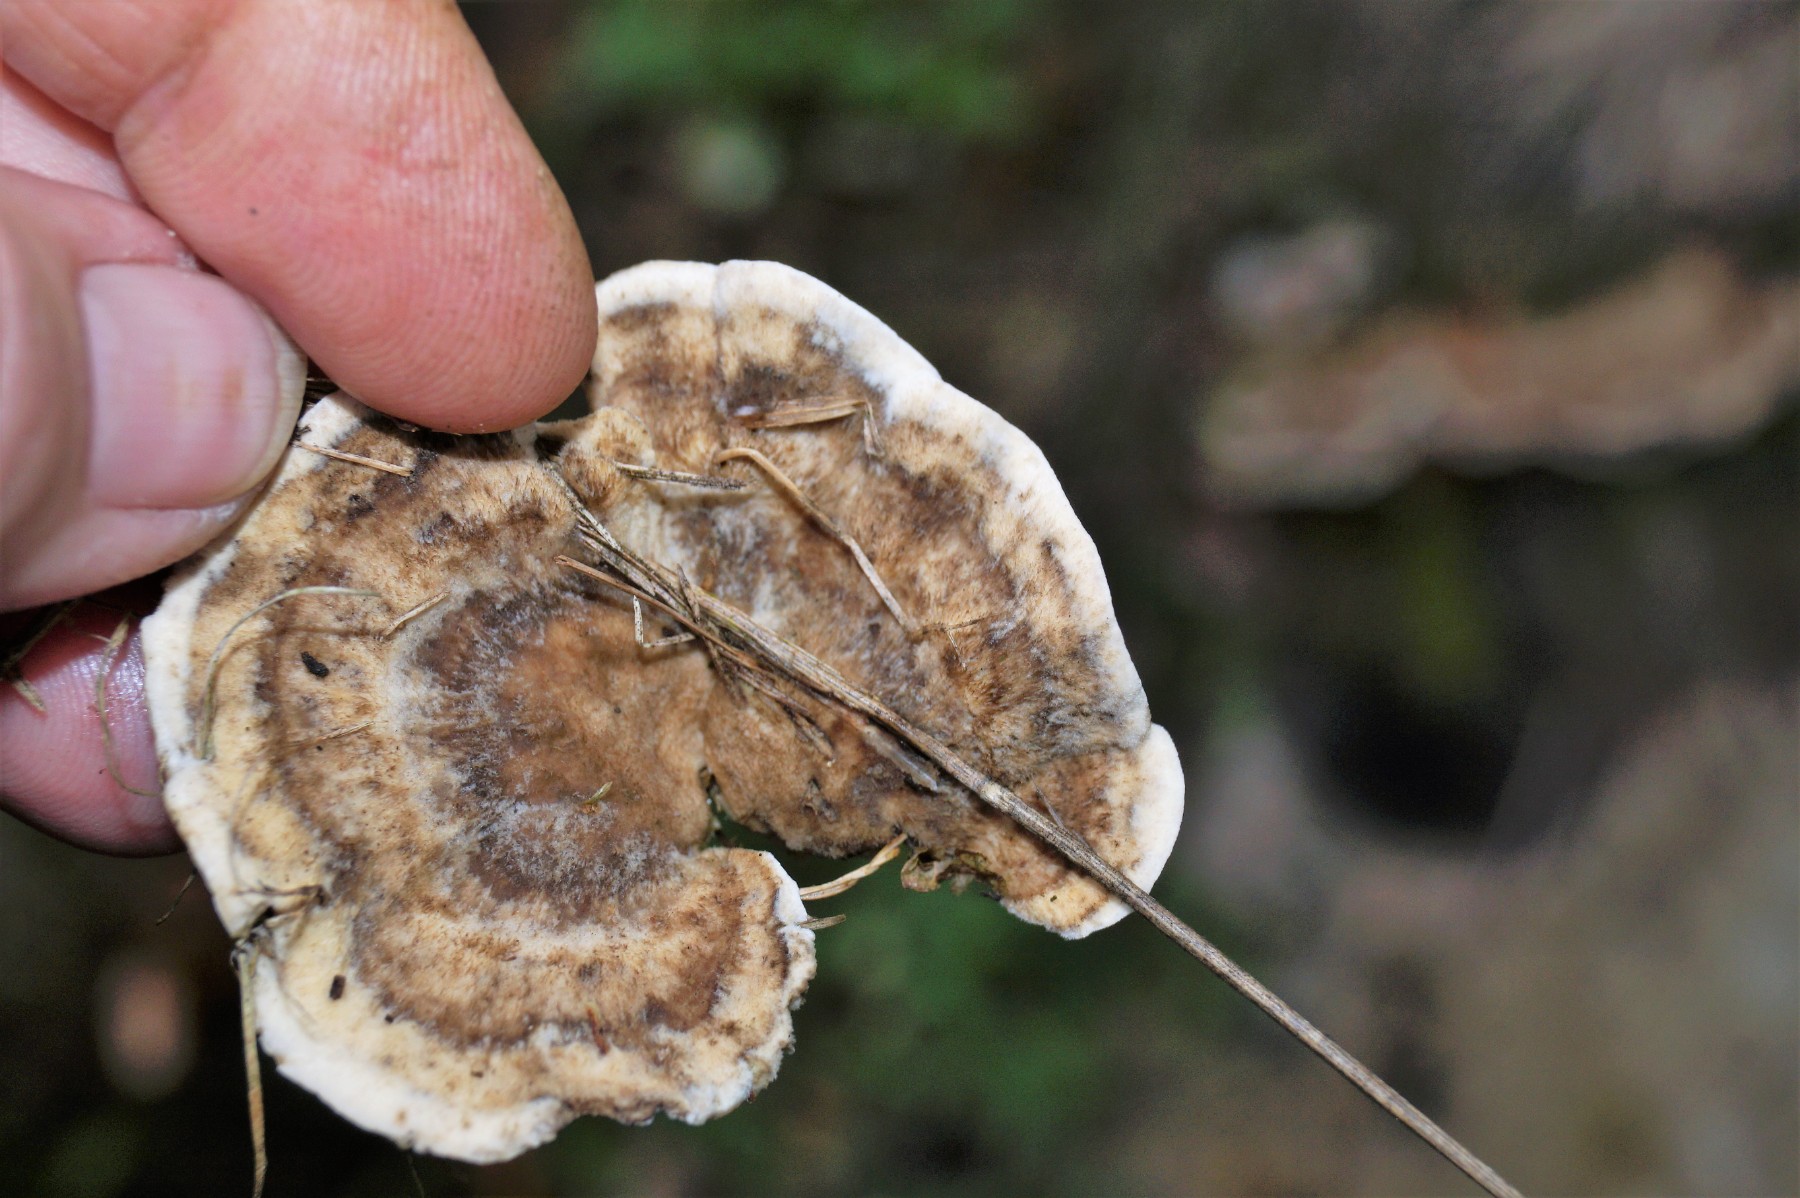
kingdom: Fungi
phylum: Basidiomycota
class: Agaricomycetes
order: Polyporales
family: Phanerochaetaceae
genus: Bjerkandera
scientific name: Bjerkandera adusta
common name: sveden sodporesvamp
